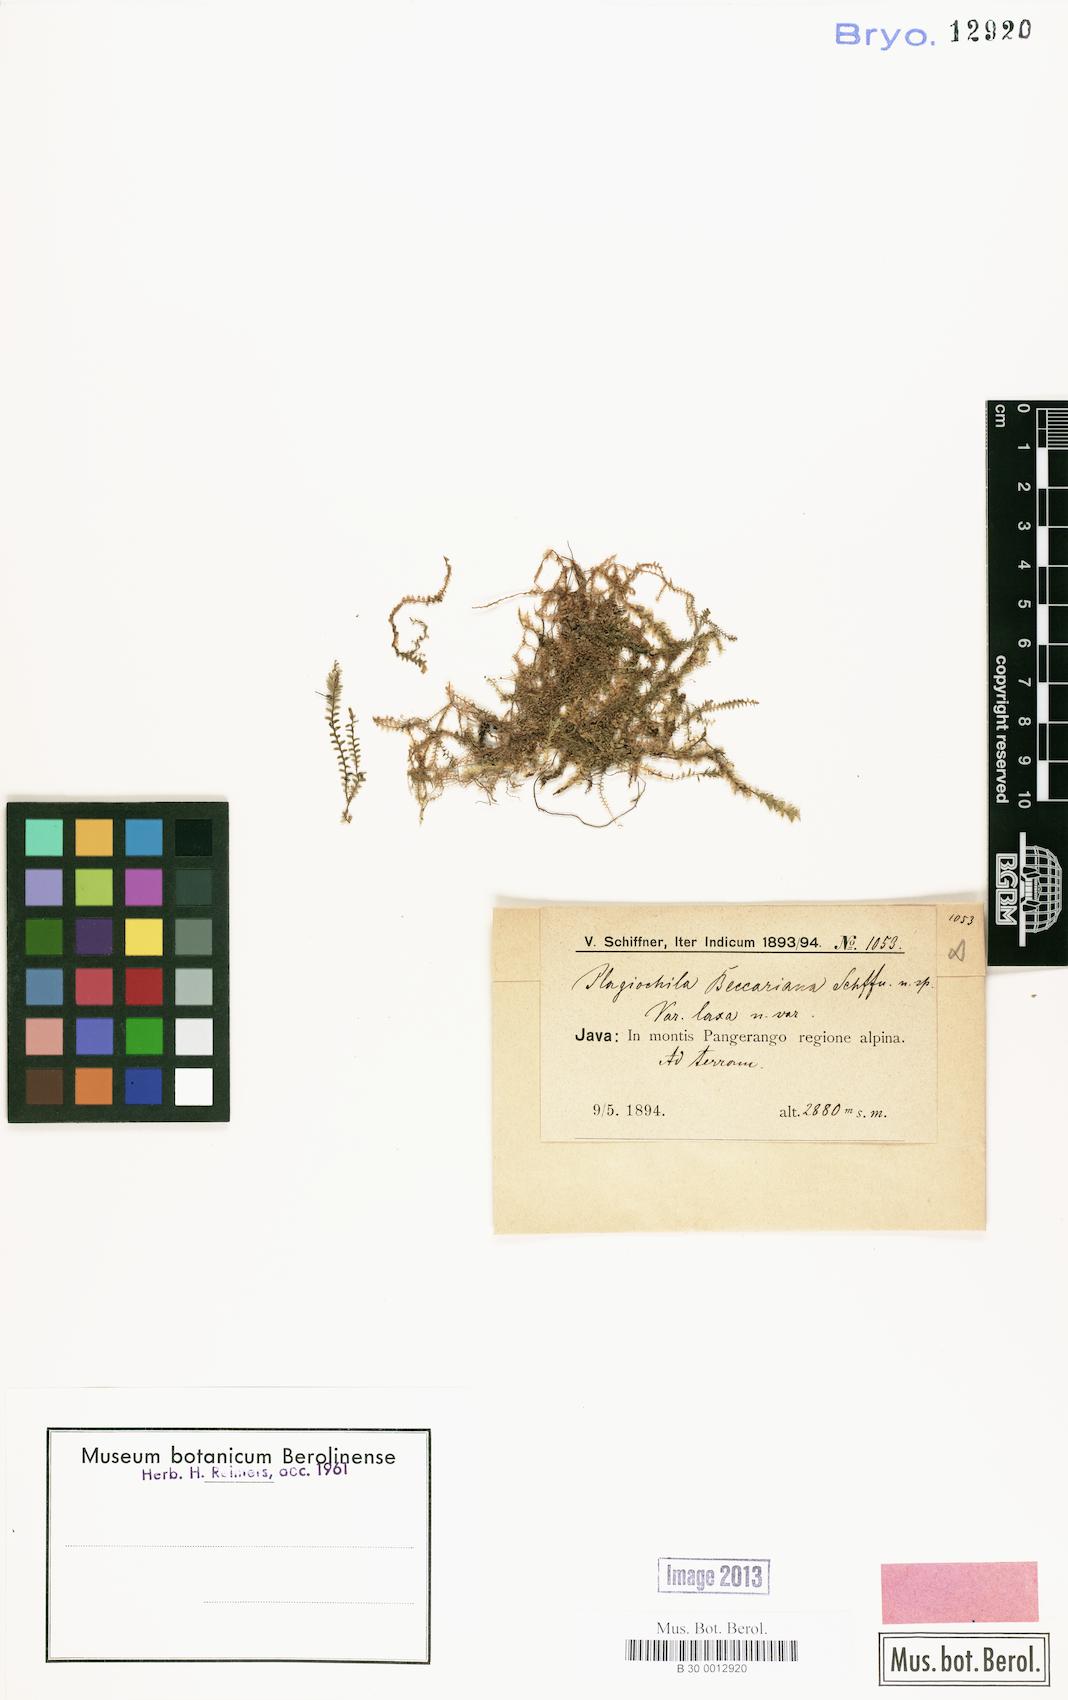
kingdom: Plantae
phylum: Marchantiophyta
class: Jungermanniopsida
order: Jungermanniales
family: Plagiochilaceae
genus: Plagiochila
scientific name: Plagiochila korthalsiana
